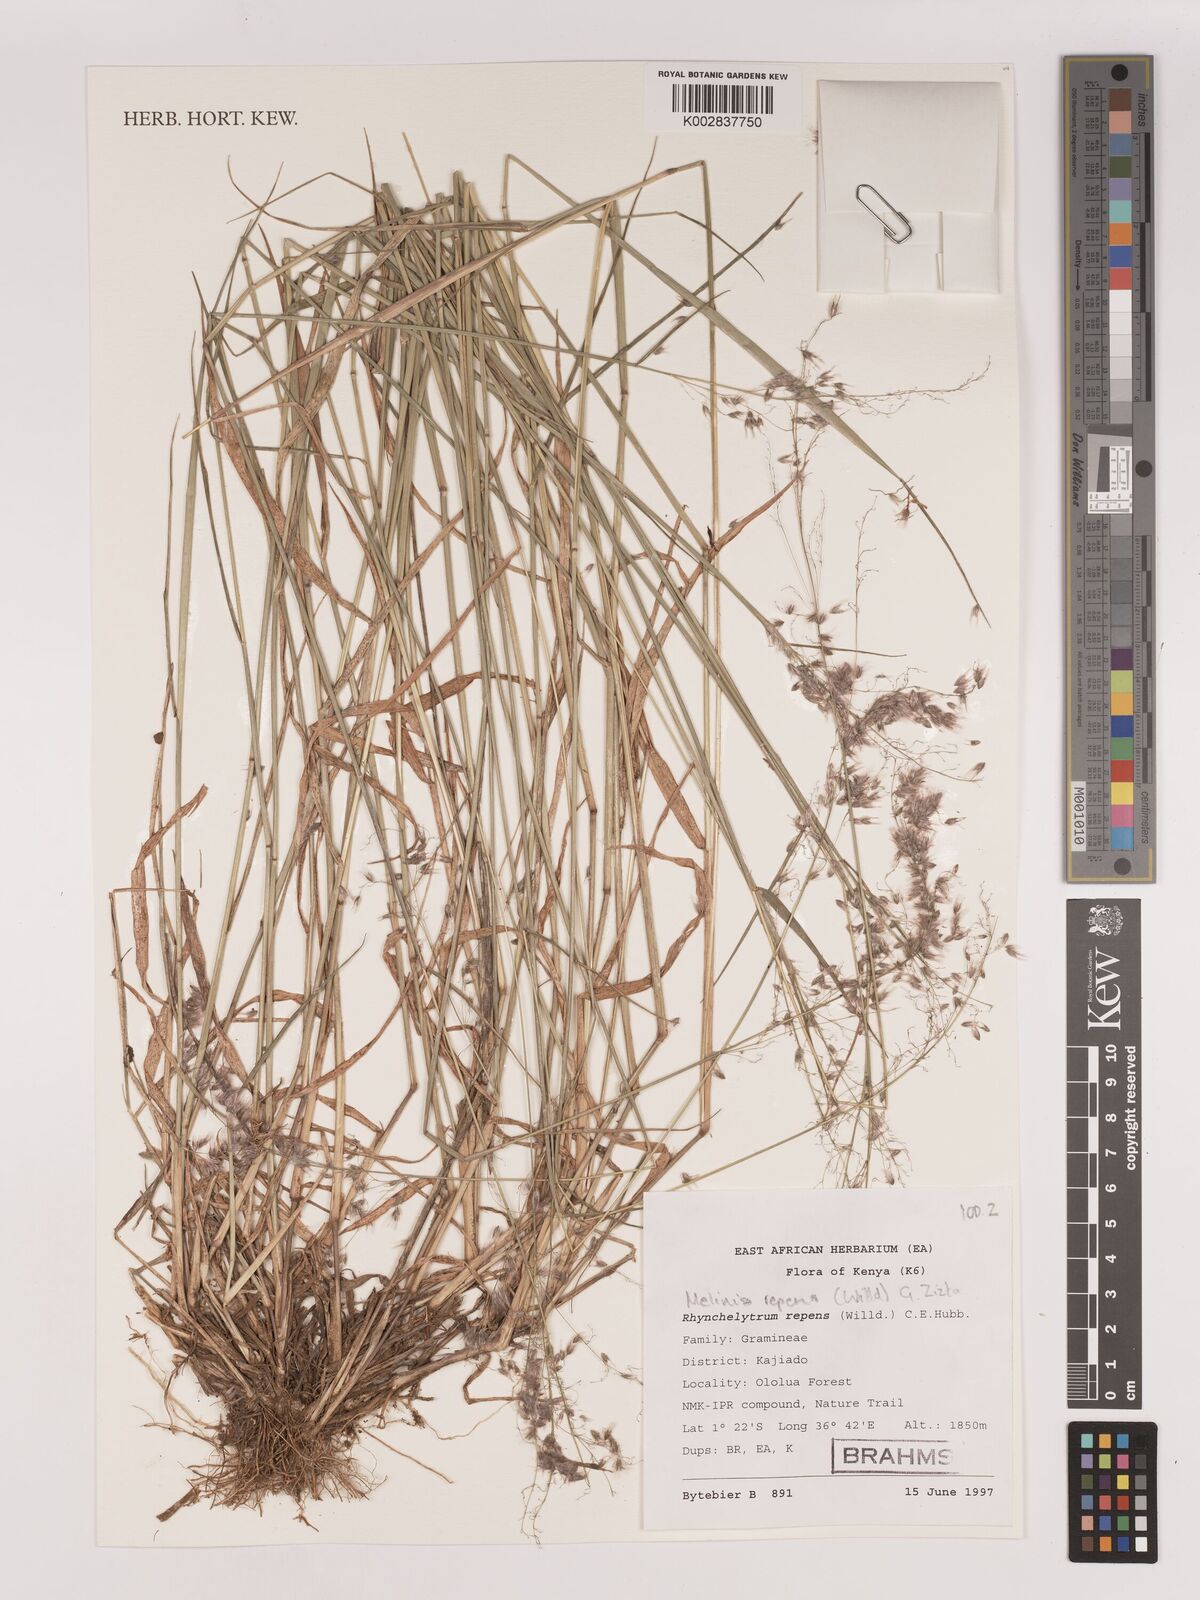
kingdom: Plantae
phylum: Tracheophyta
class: Liliopsida
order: Poales
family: Poaceae
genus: Melinis
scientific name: Melinis repens
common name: Rose natal grass
